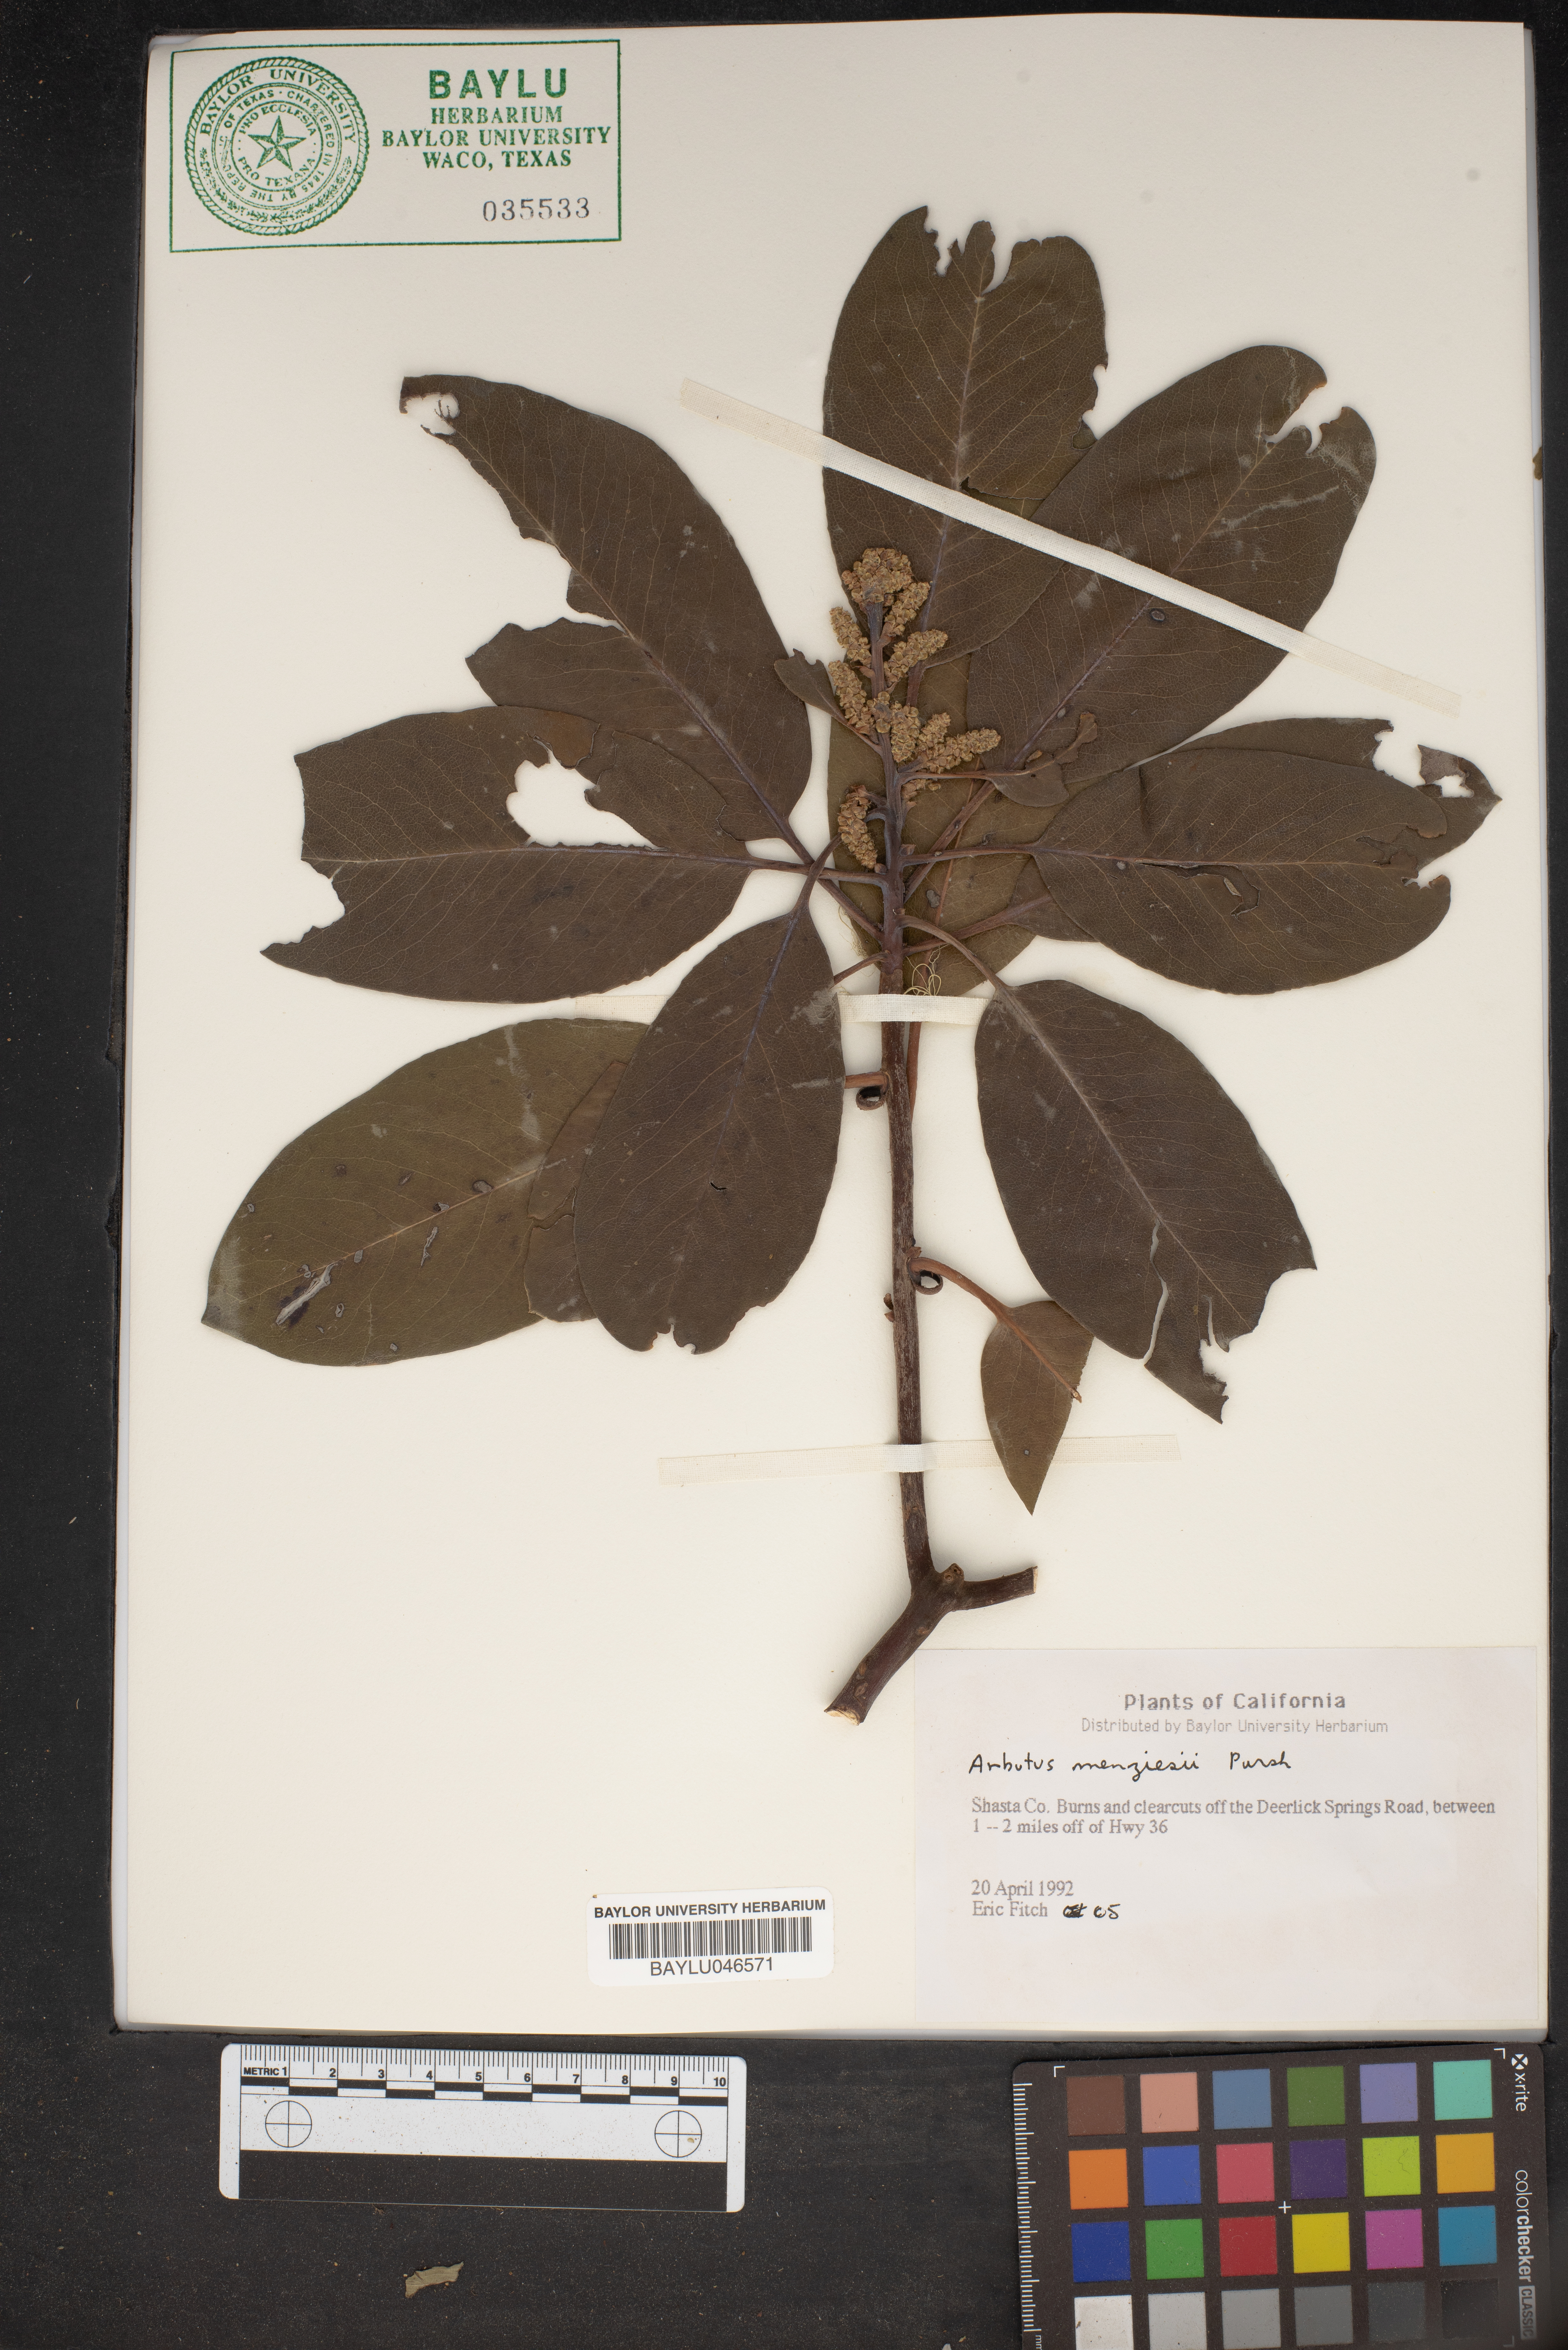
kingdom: Plantae
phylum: Tracheophyta
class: Magnoliopsida
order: Ericales
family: Ericaceae
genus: Arbutus
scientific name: Arbutus menziesii
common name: Pacific madrone
